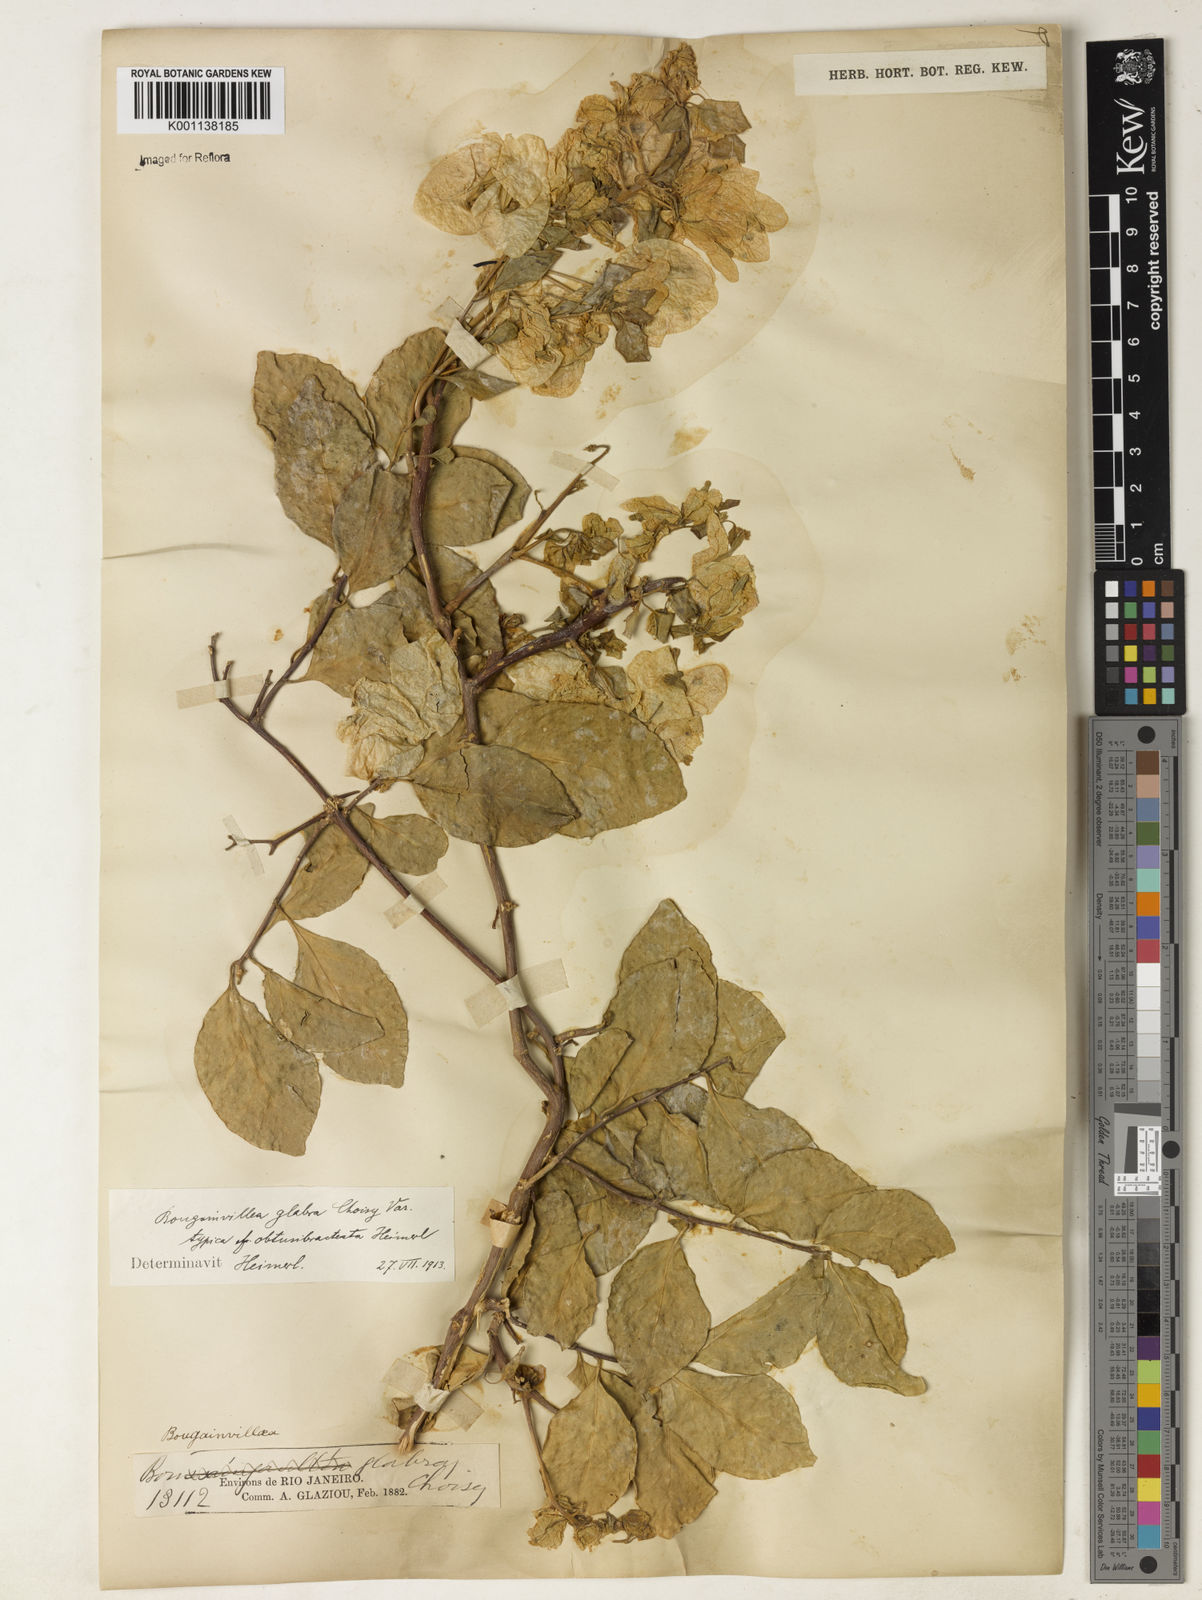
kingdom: Plantae
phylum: Tracheophyta
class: Magnoliopsida
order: Caryophyllales
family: Nyctaginaceae
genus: Bougainvillea
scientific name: Bougainvillea glabra
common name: Paperflower
